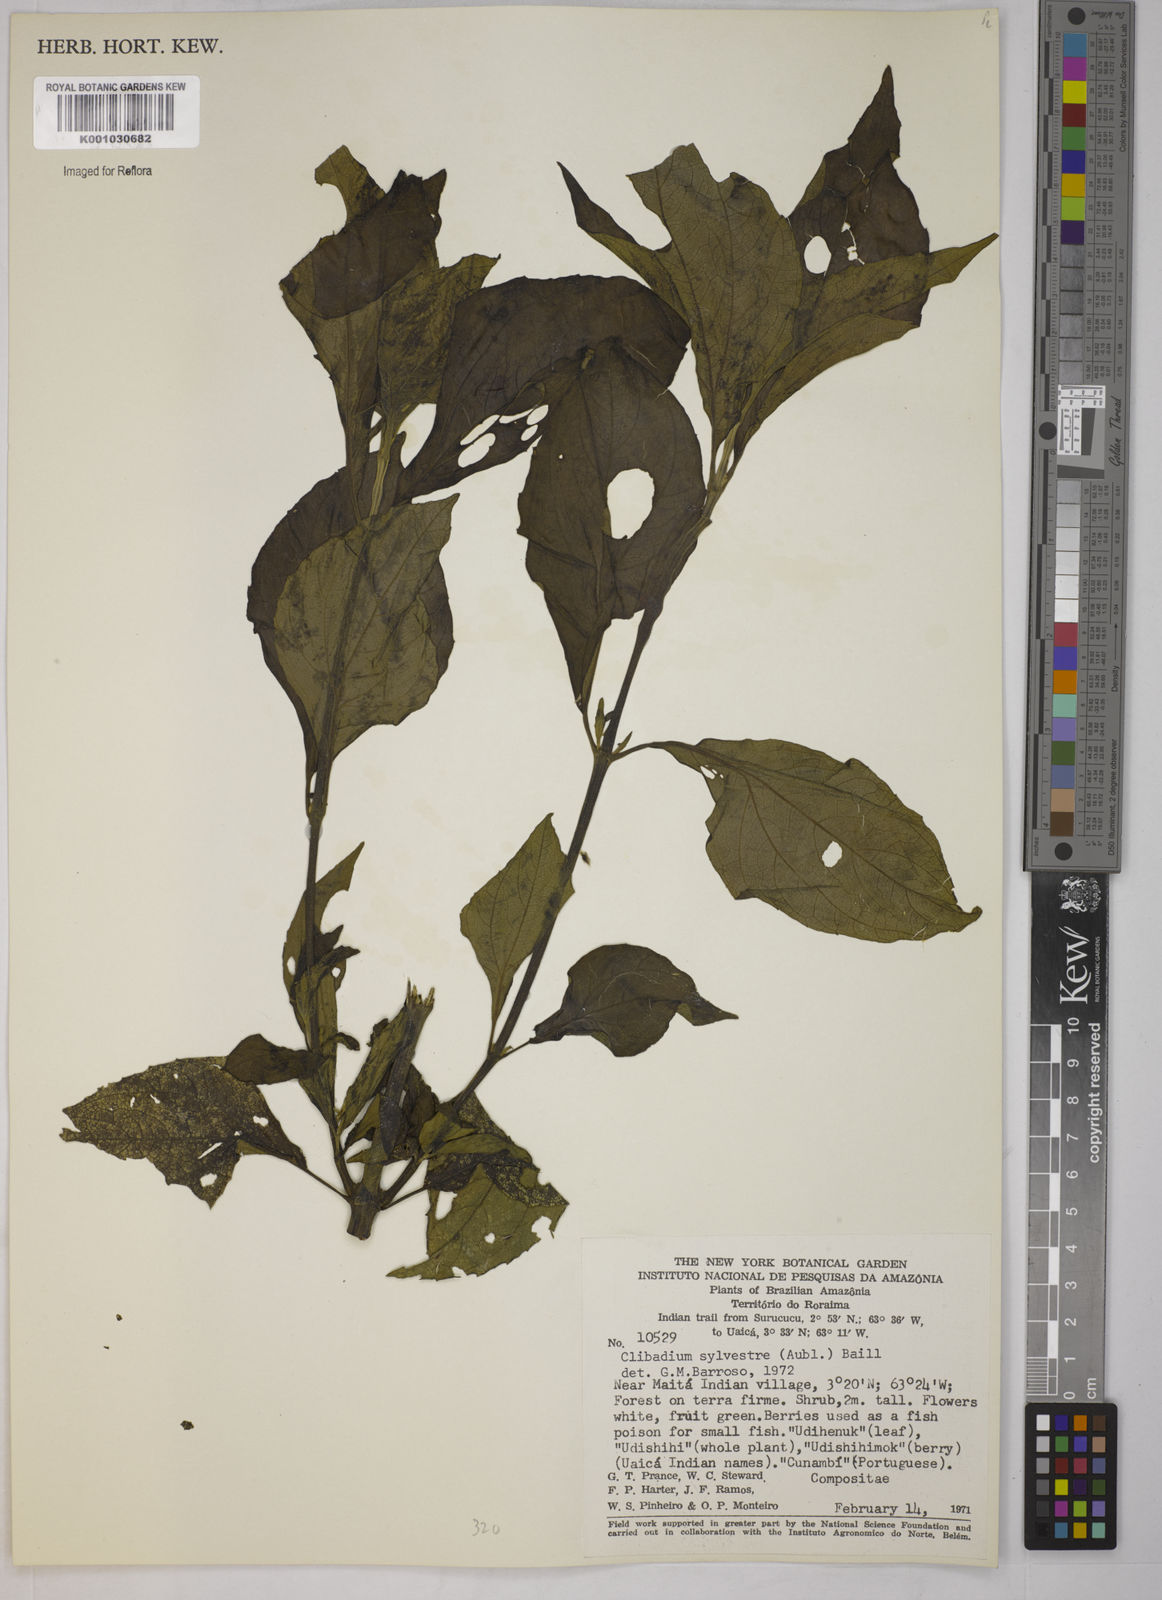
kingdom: Plantae
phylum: Tracheophyta
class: Magnoliopsida
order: Asterales
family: Asteraceae
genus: Clibadium
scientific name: Clibadium sylvestre
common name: Barbasco
